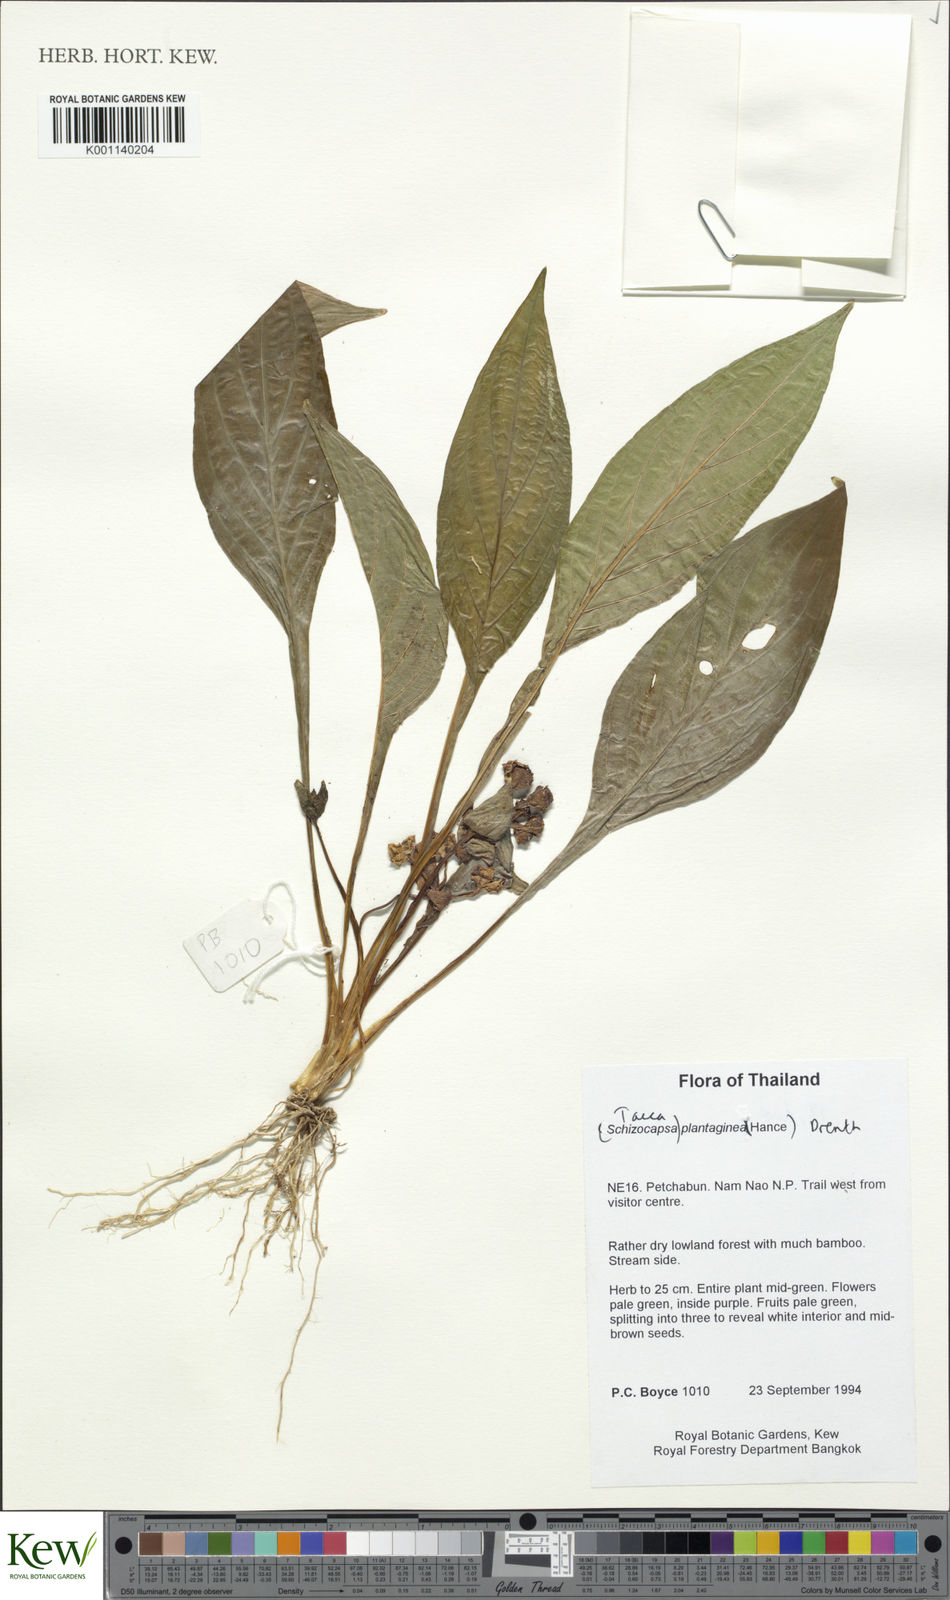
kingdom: Plantae
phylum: Tracheophyta
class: Liliopsida
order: Dioscoreales
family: Dioscoreaceae
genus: Tacca
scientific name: Tacca plantaginea
